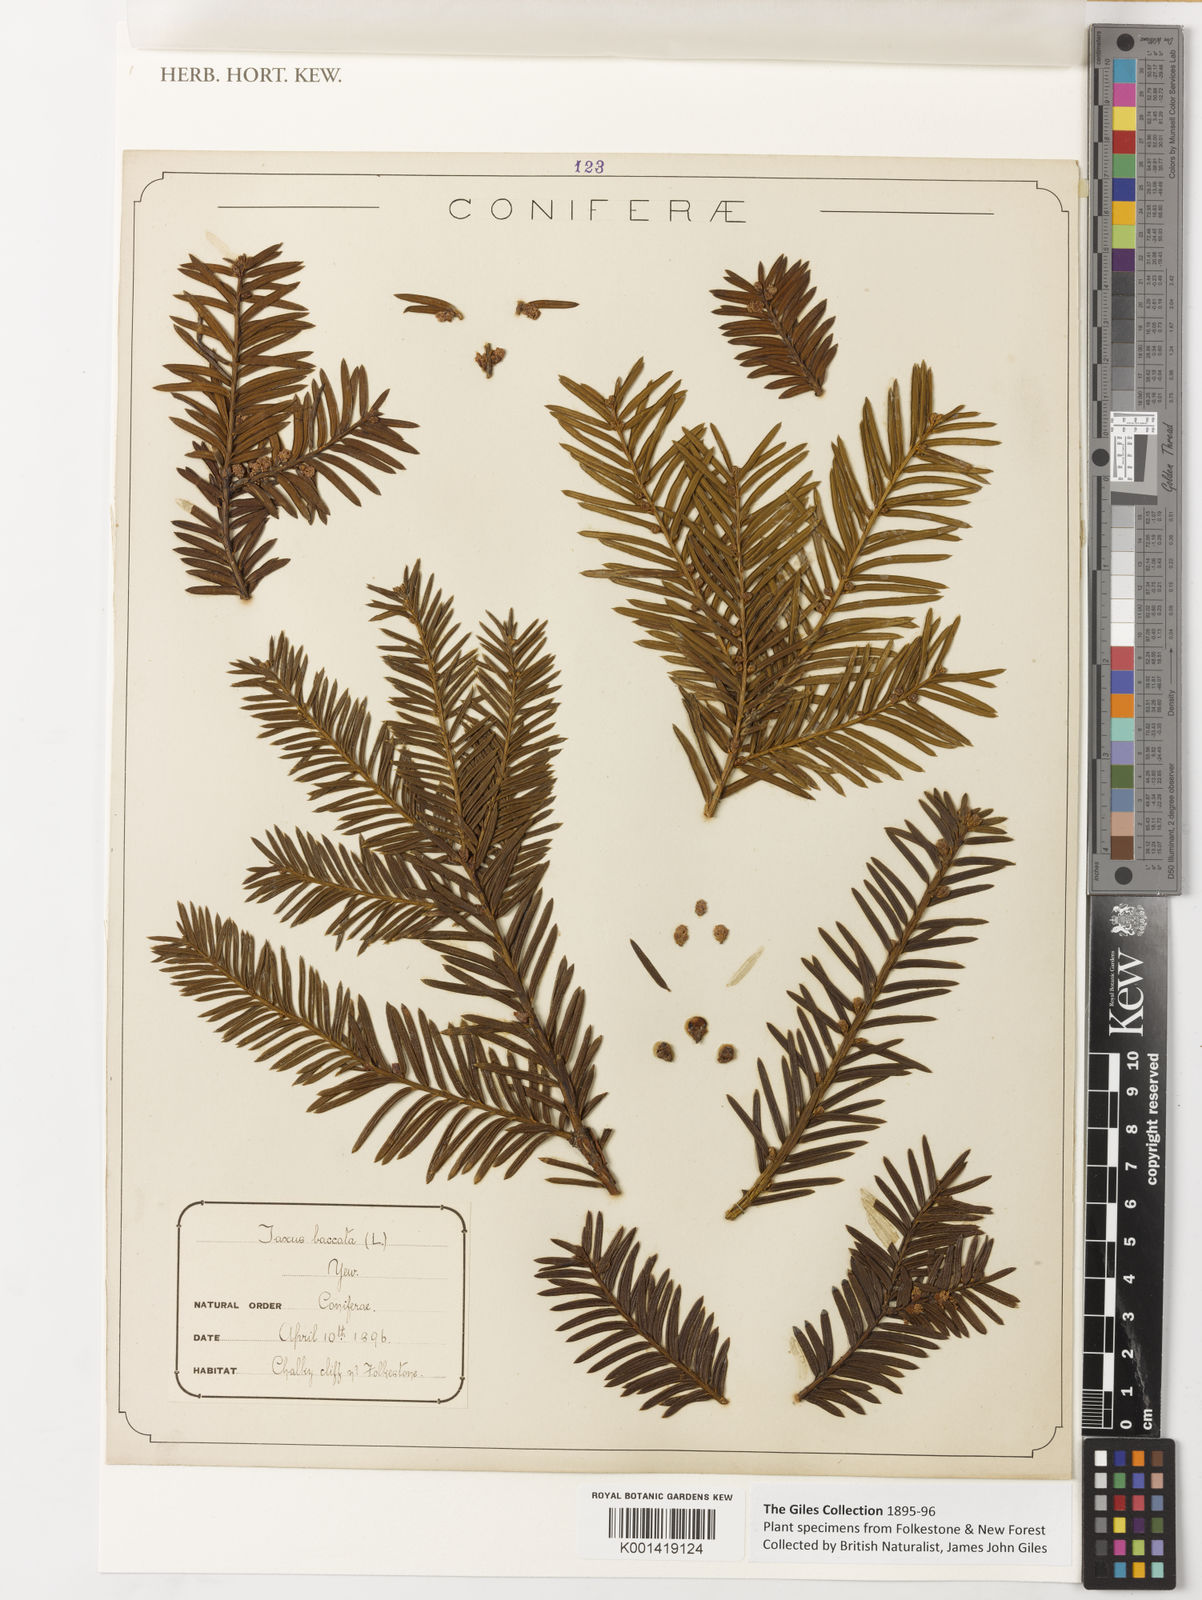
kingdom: Plantae
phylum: Tracheophyta
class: Pinopsida
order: Pinales
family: Taxaceae
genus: Taxus
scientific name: Taxus baccata
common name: Yew
